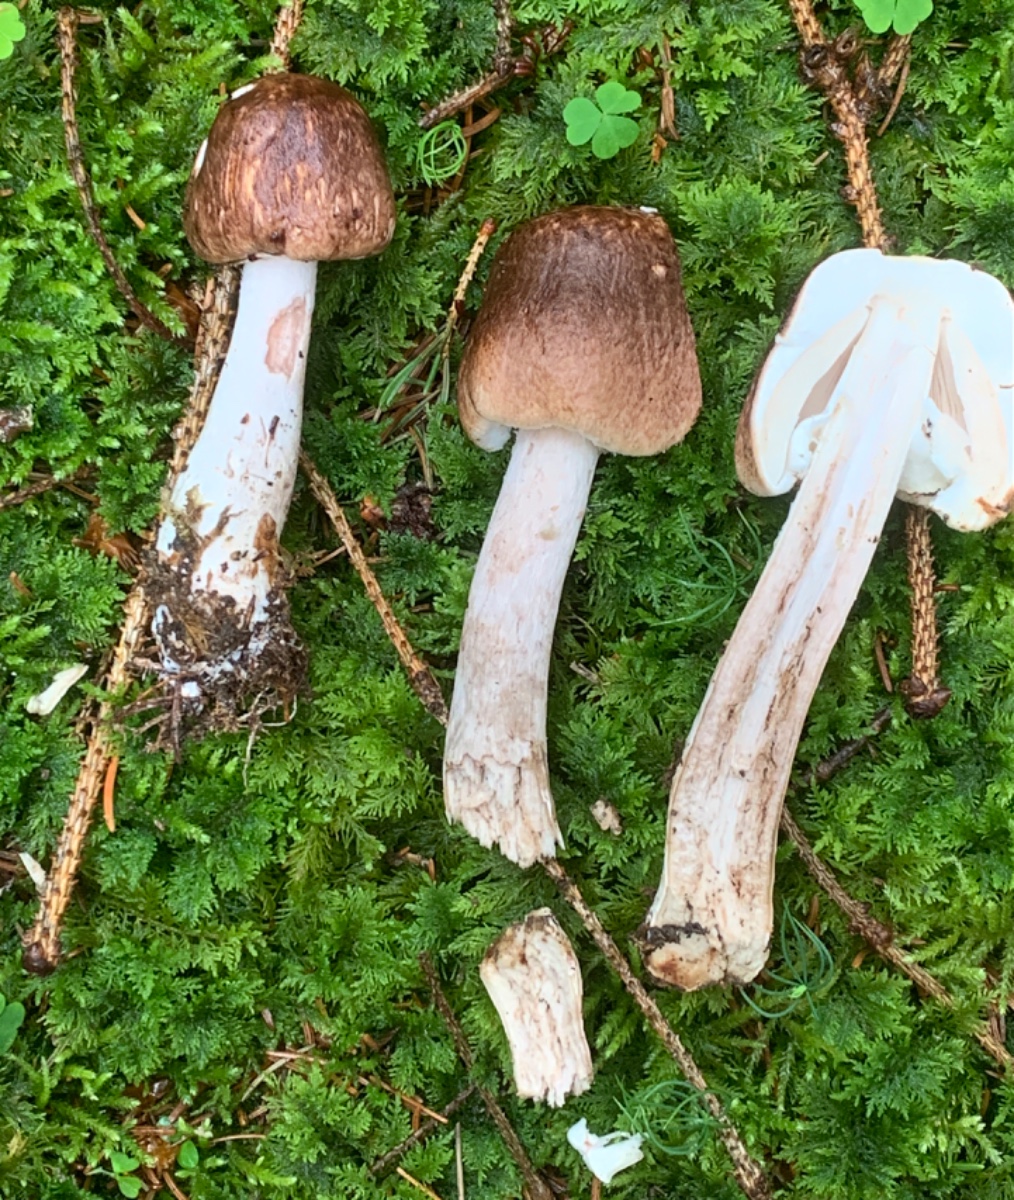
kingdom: Fungi
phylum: Basidiomycota
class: Agaricomycetes
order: Agaricales
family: Agaricaceae
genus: Agaricus
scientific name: Agaricus impudicus
